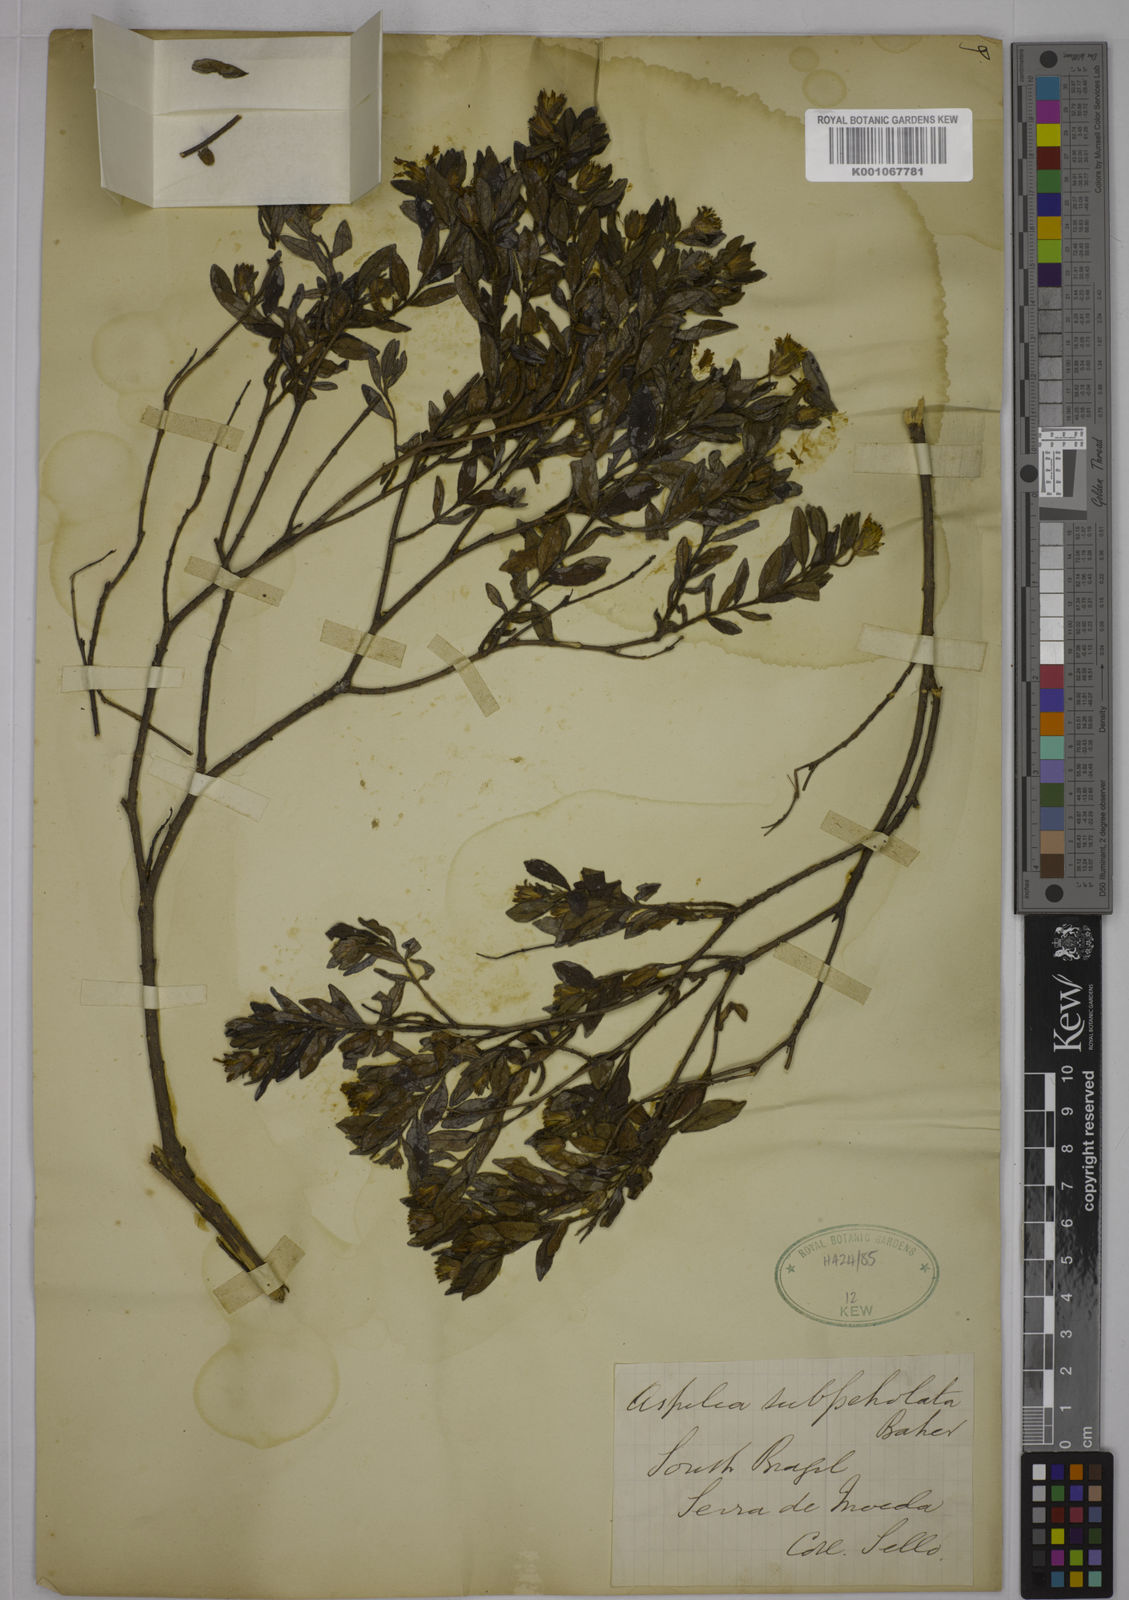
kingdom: Plantae
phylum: Tracheophyta
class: Magnoliopsida
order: Asterales
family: Asteraceae
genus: Wedelia
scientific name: Wedelia subpetiolata
